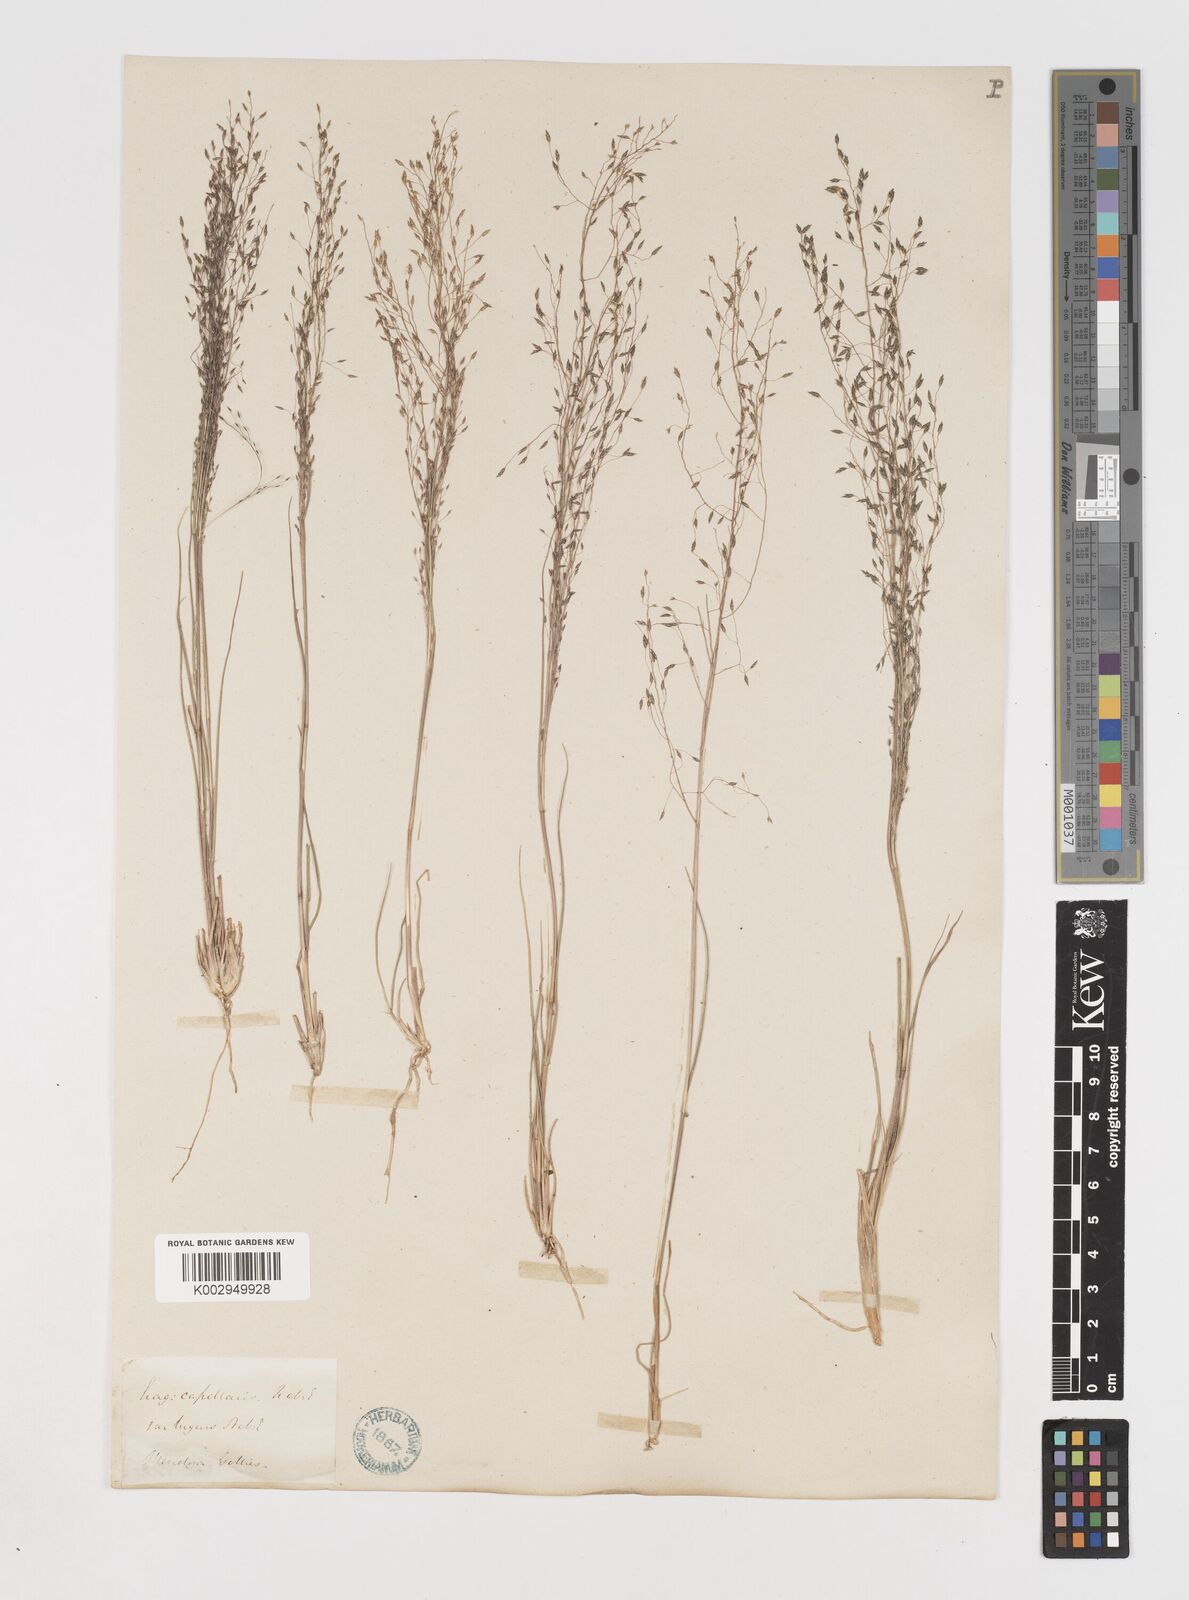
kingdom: Plantae
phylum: Tracheophyta
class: Liliopsida
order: Poales
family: Poaceae
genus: Eragrostis
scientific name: Eragrostis lugens
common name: Mourning love grass
